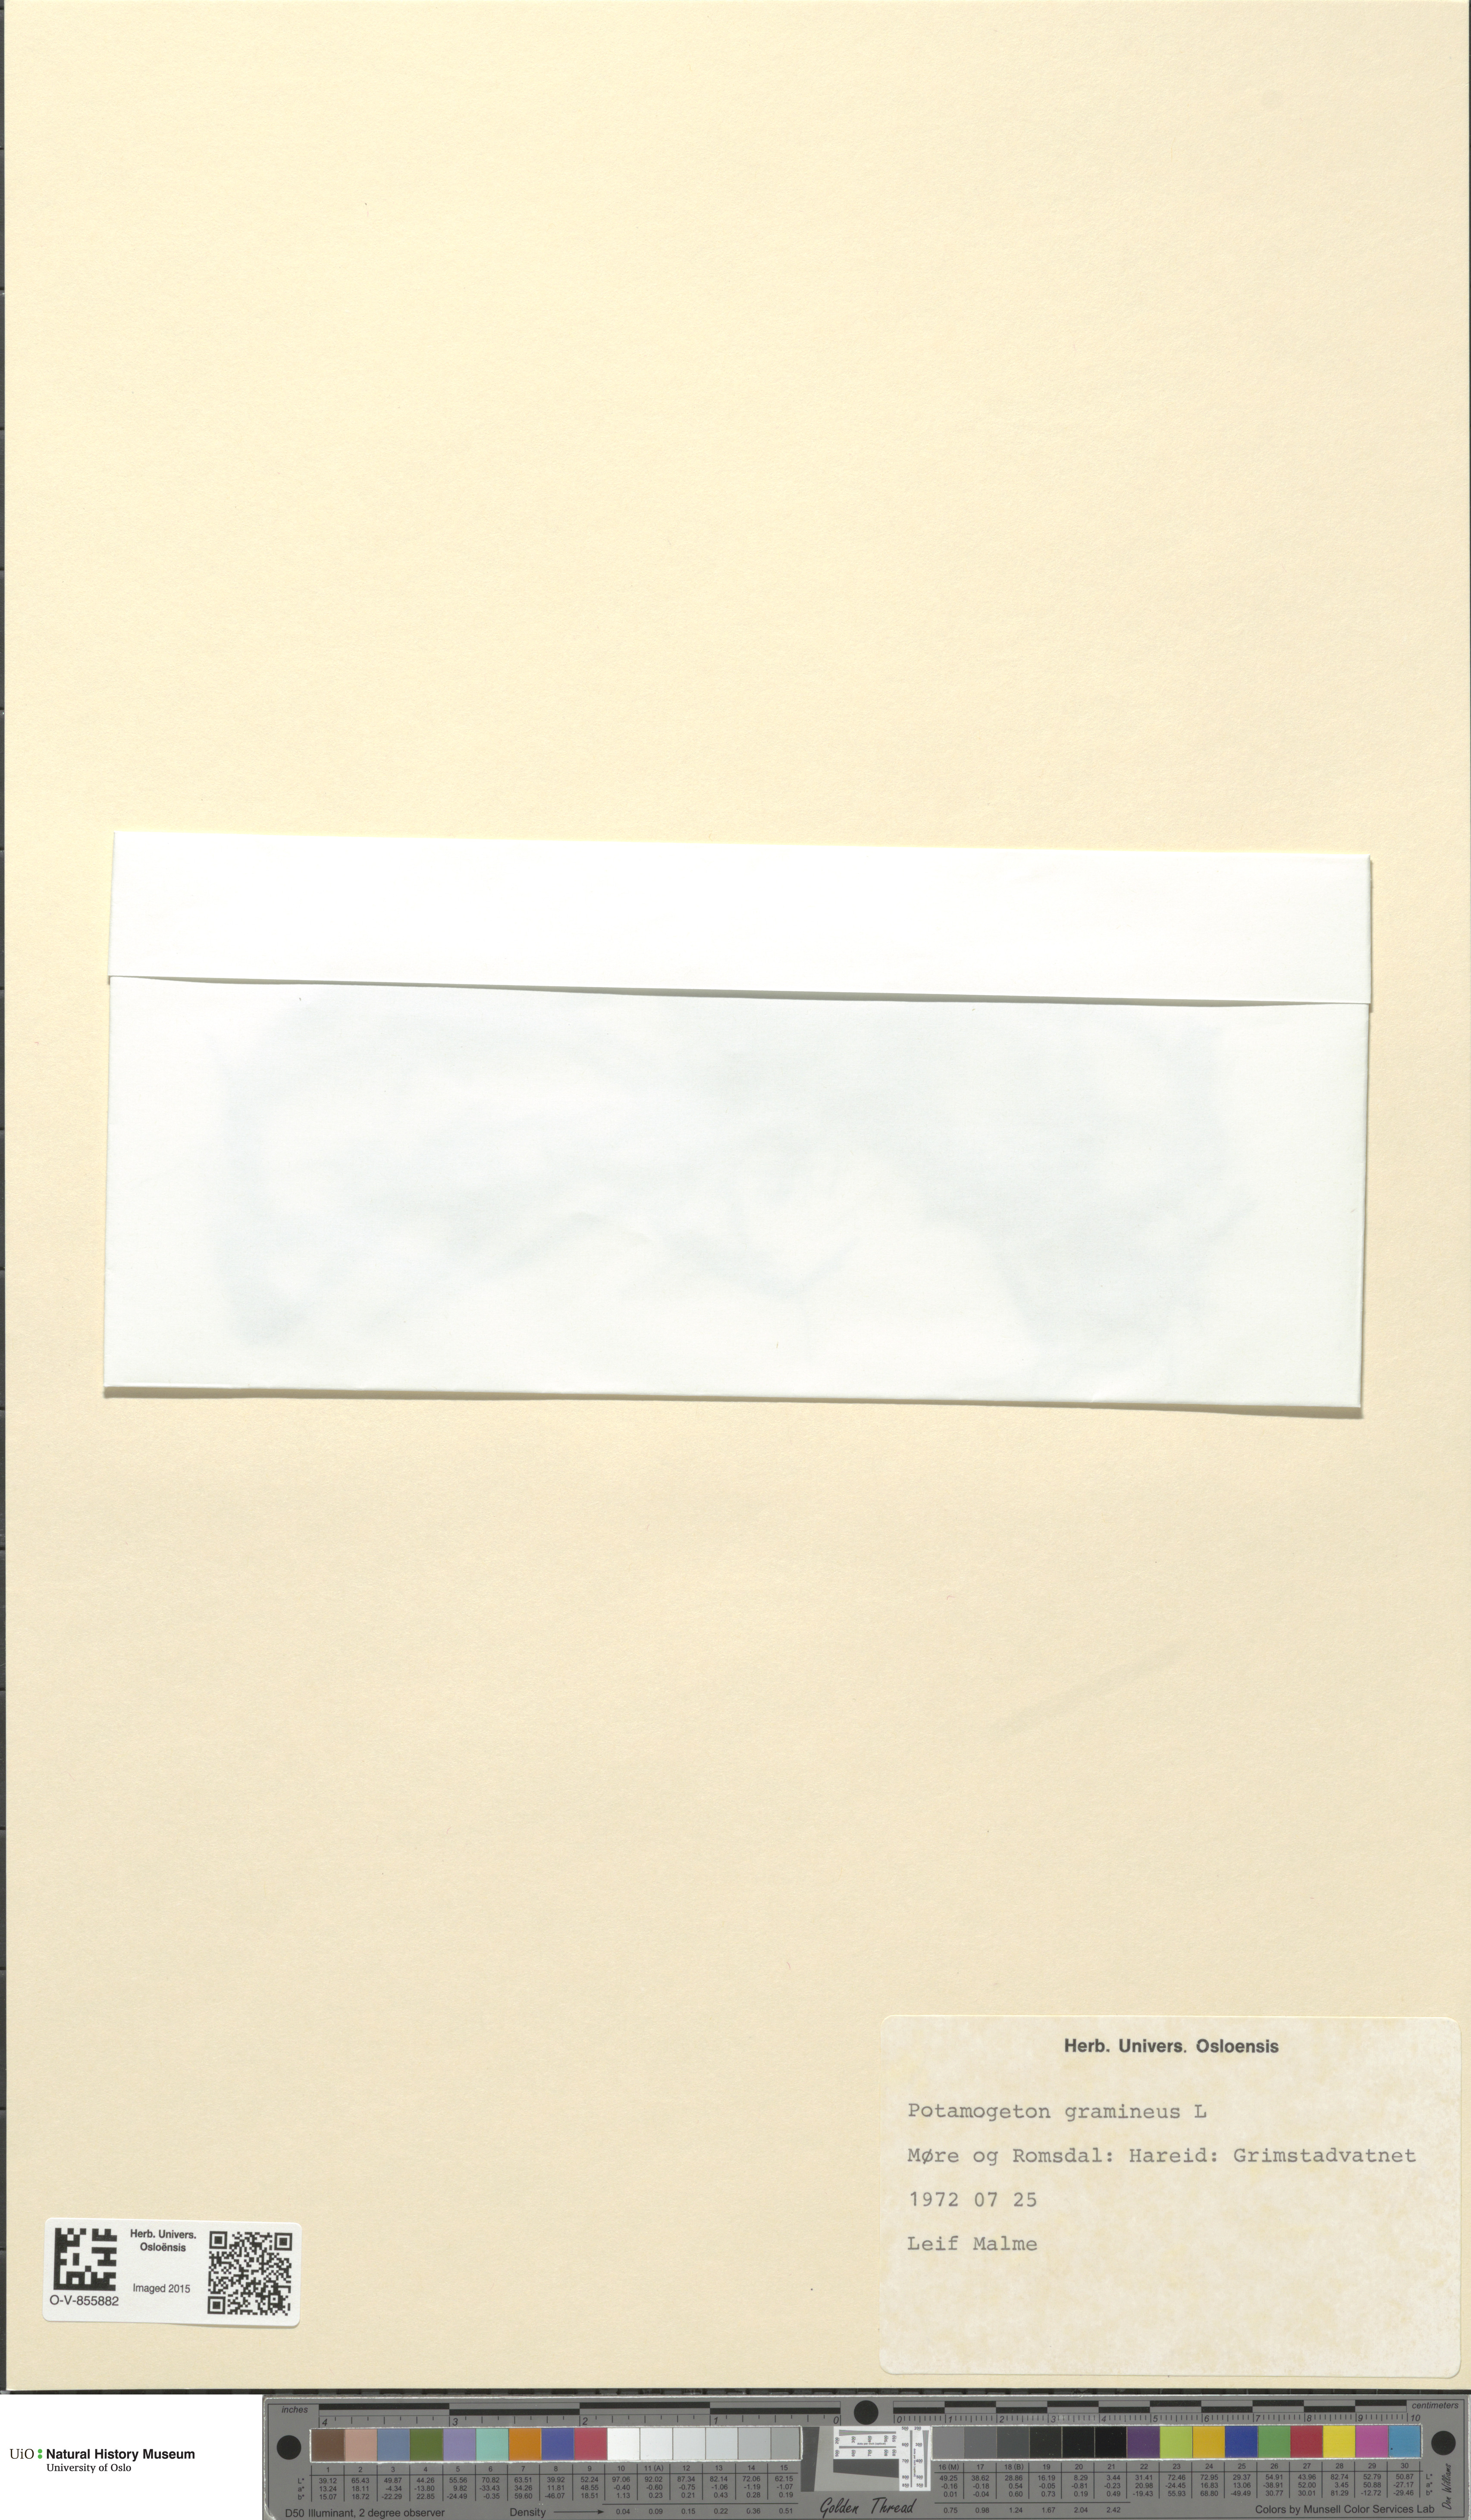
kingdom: Plantae
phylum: Tracheophyta
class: Liliopsida
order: Alismatales
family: Potamogetonaceae
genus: Potamogeton
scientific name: Potamogeton gramineus
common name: Various-leaved pondweed
